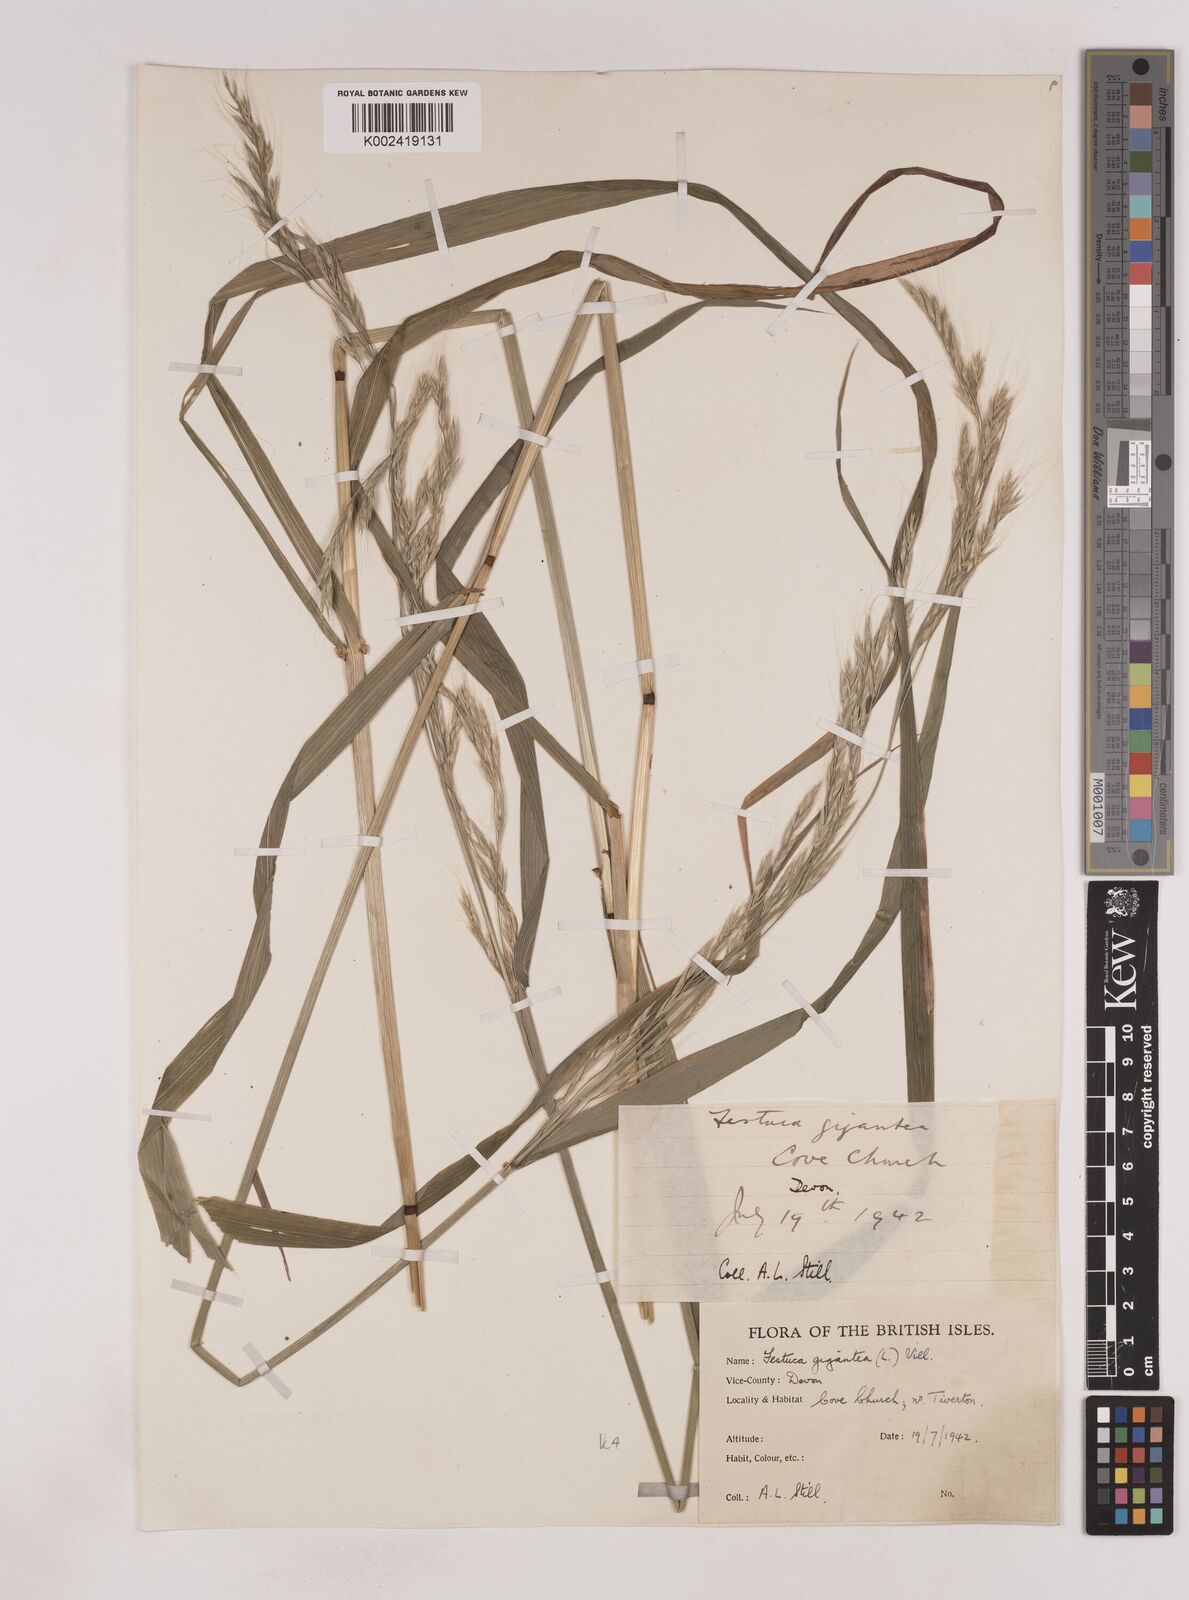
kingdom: Plantae
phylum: Tracheophyta
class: Liliopsida
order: Poales
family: Poaceae
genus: Lolium
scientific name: Lolium giganteum
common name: Giant fescue
